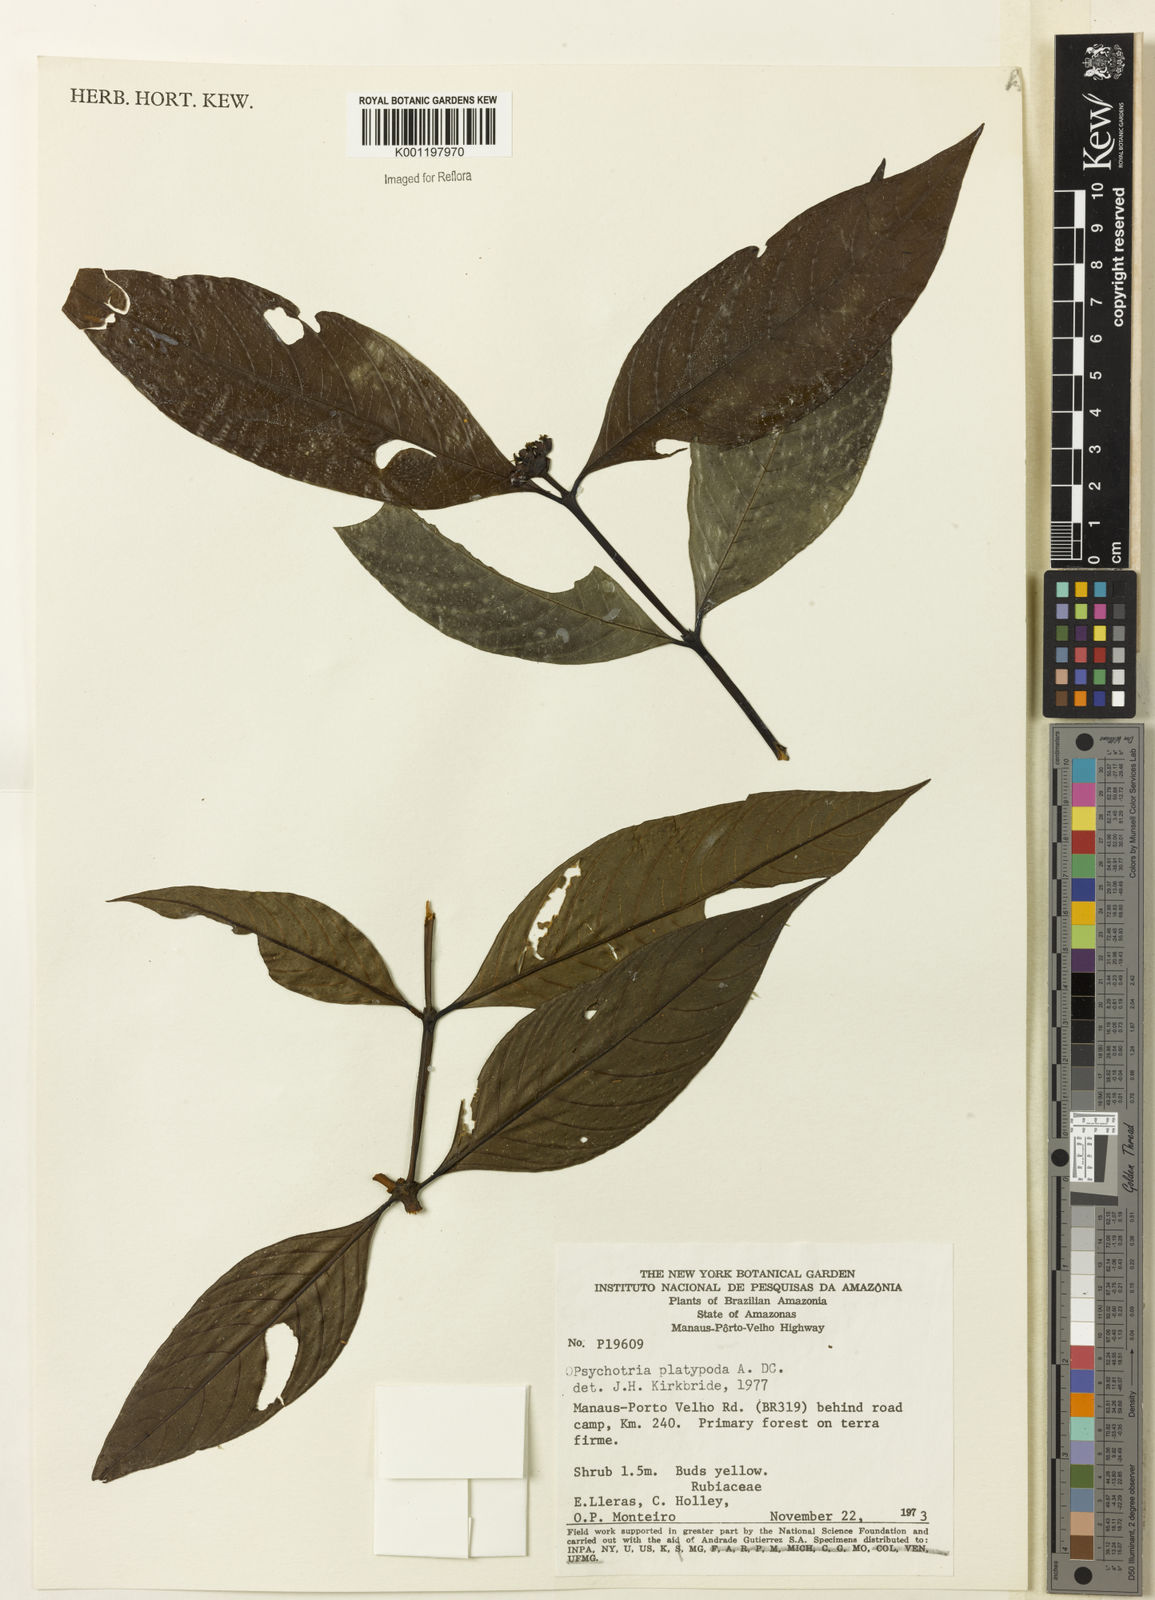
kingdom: Plantae
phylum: Tracheophyta
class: Magnoliopsida
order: Gentianales
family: Rubiaceae
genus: Palicourea
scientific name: Palicourea dichotoma
